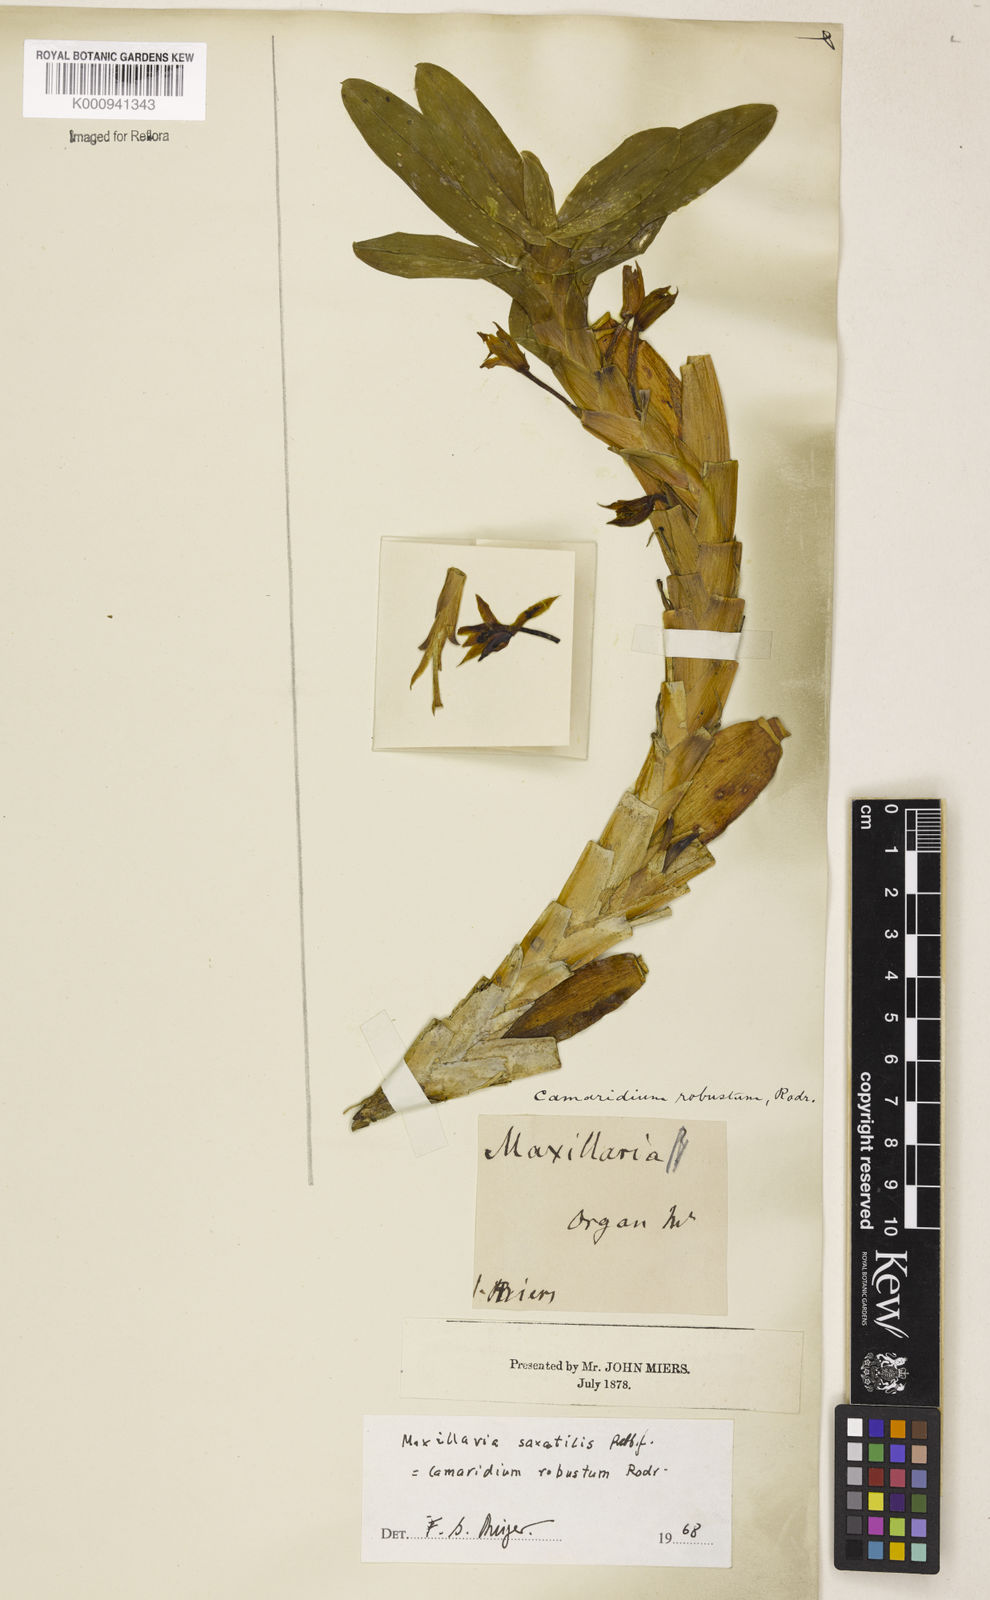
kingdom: Plantae
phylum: Tracheophyta
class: Liliopsida
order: Asparagales
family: Orchidaceae
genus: Maxillaria
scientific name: Maxillaria johannis
